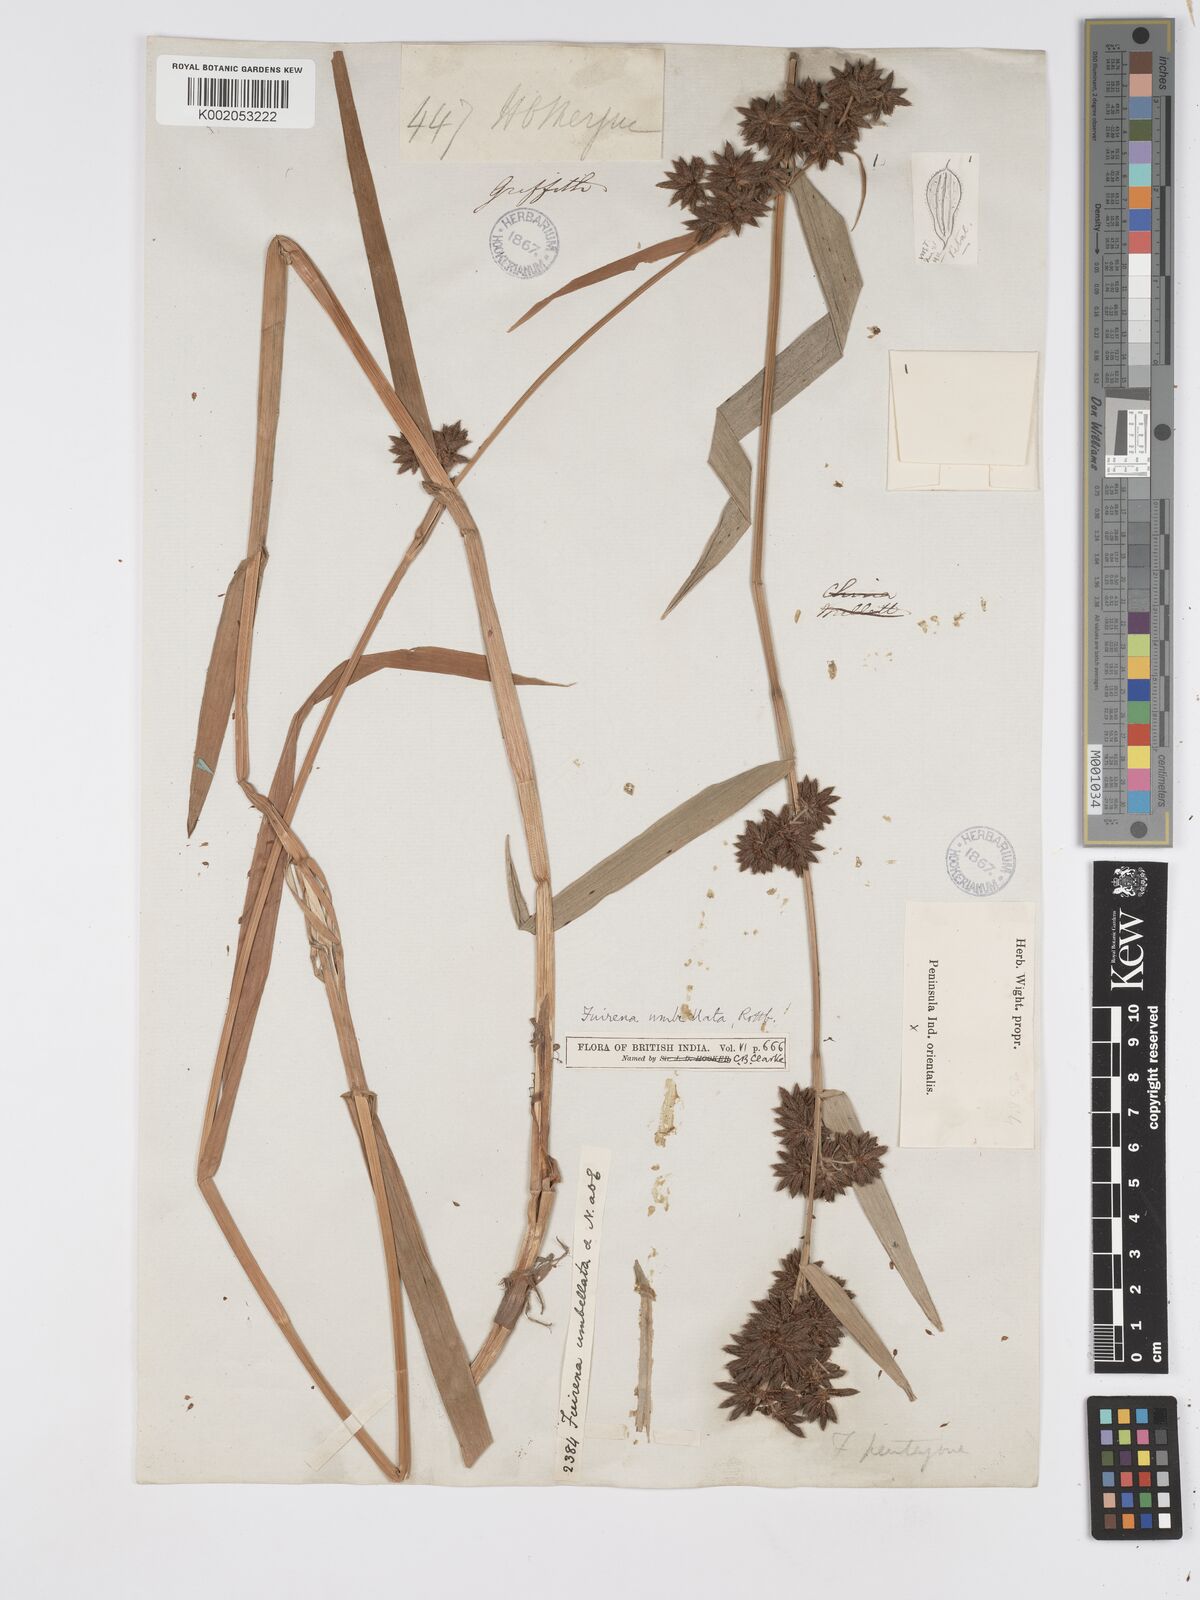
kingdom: Plantae
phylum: Tracheophyta
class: Liliopsida
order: Poales
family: Cyperaceae
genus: Fuirena
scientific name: Fuirena umbellata
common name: Yefen
